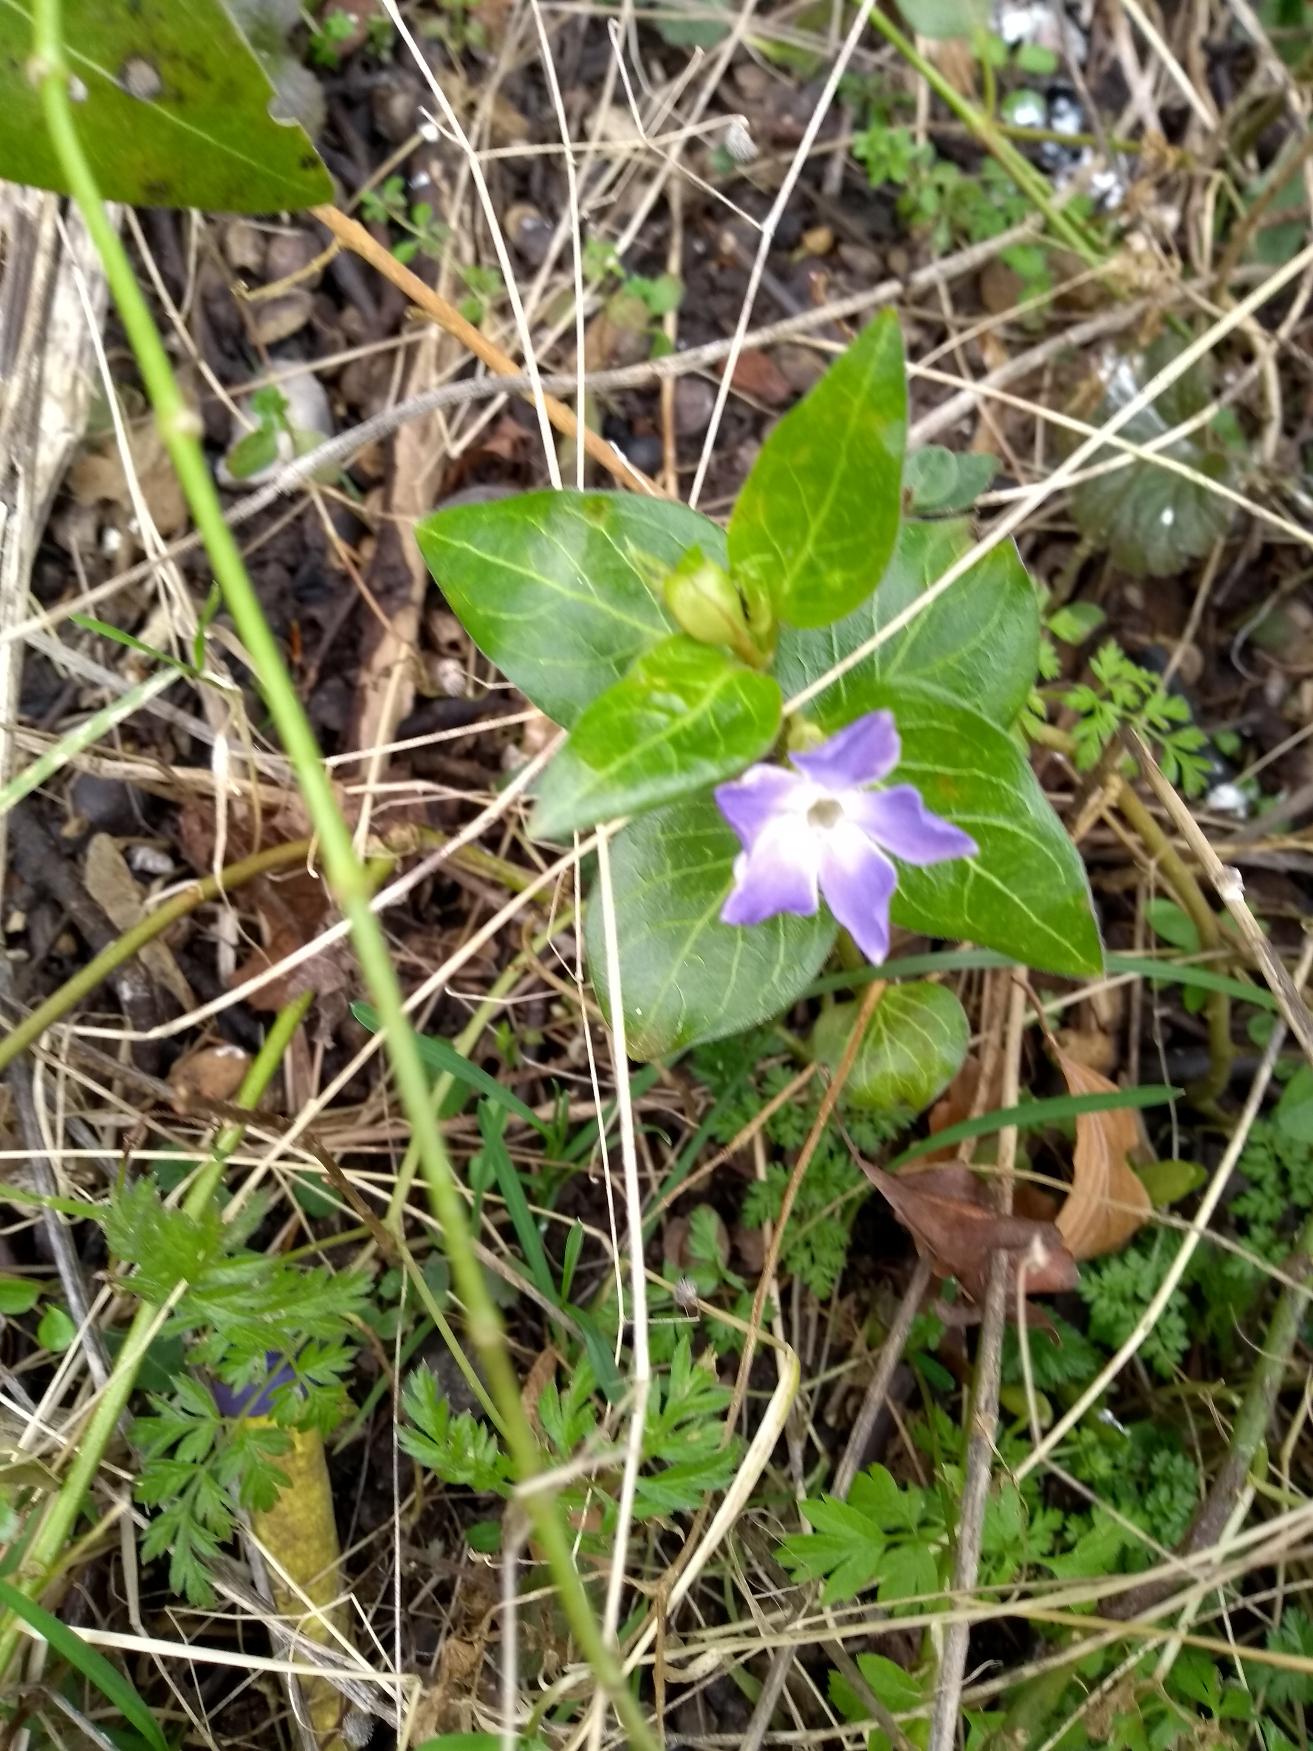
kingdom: Plantae
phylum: Tracheophyta
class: Magnoliopsida
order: Gentianales
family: Apocynaceae
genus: Vinca
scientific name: Vinca major
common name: Stor singrøn
